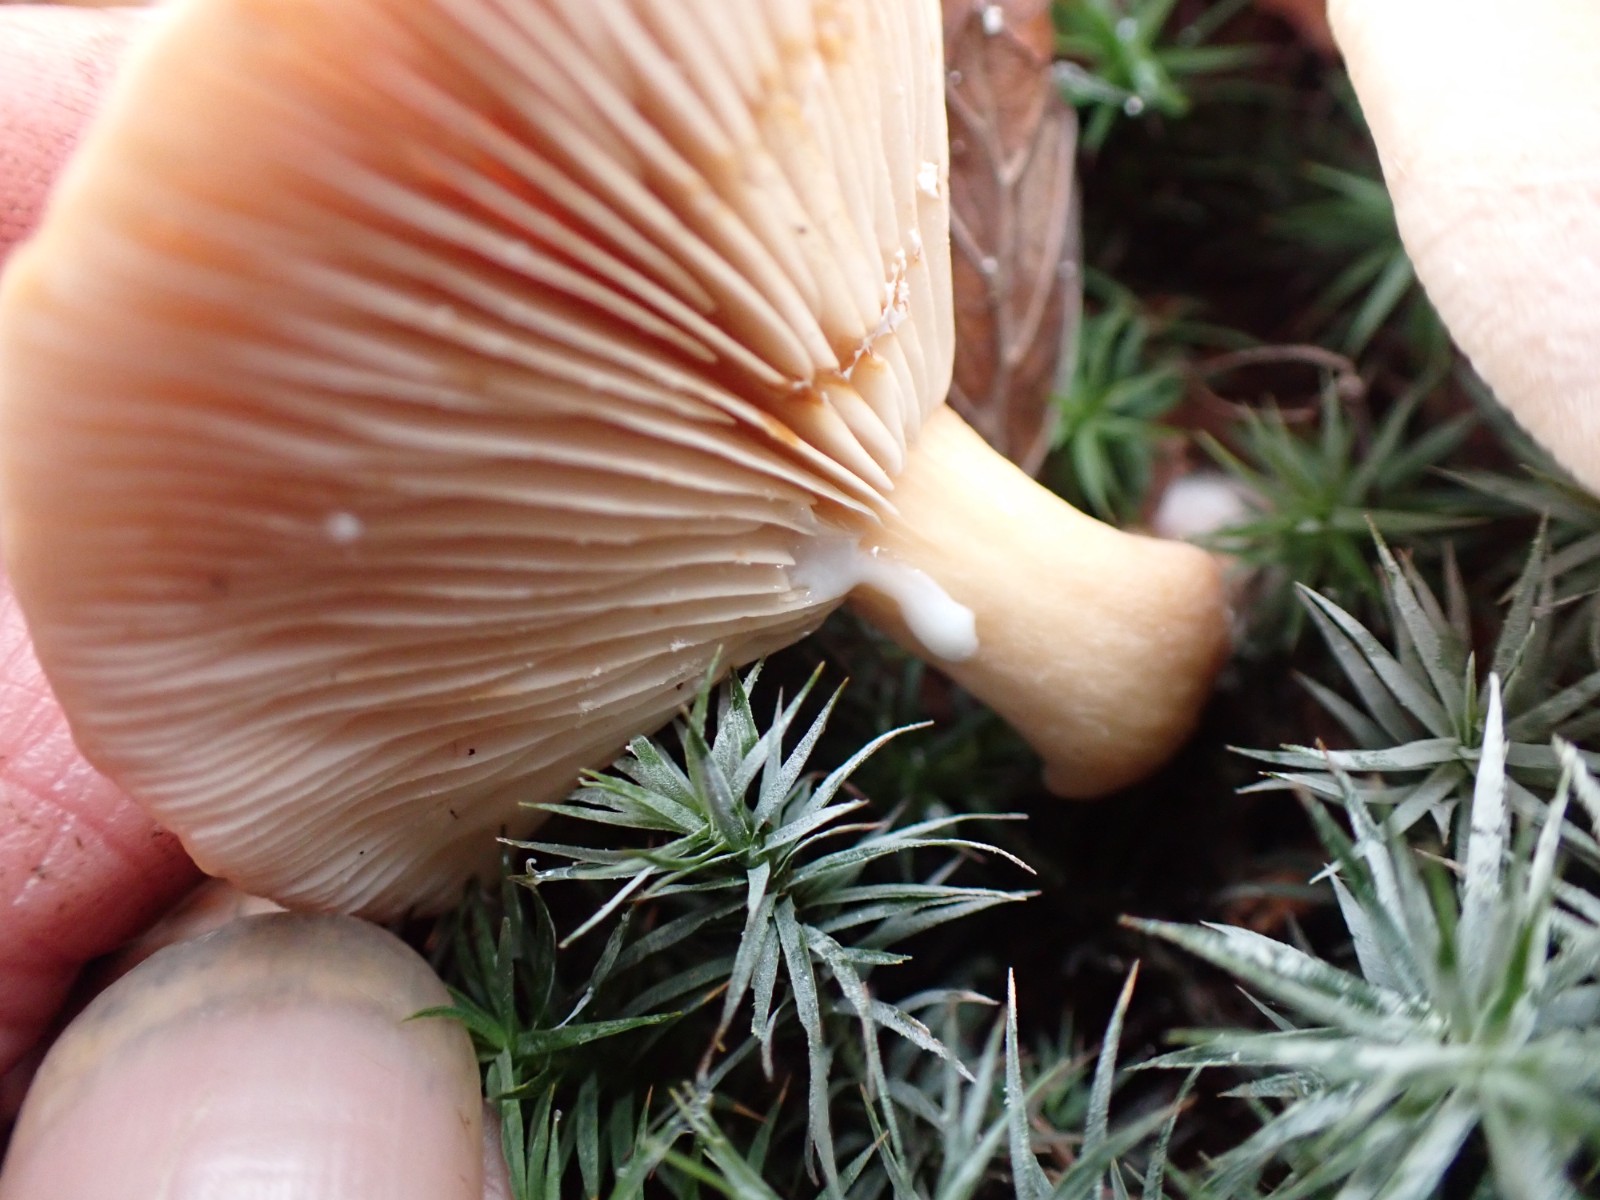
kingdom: Fungi
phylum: Basidiomycota
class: Agaricomycetes
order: Russulales
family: Russulaceae
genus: Lactarius
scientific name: Lactarius subdulcis
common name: sødlig mælkehat
